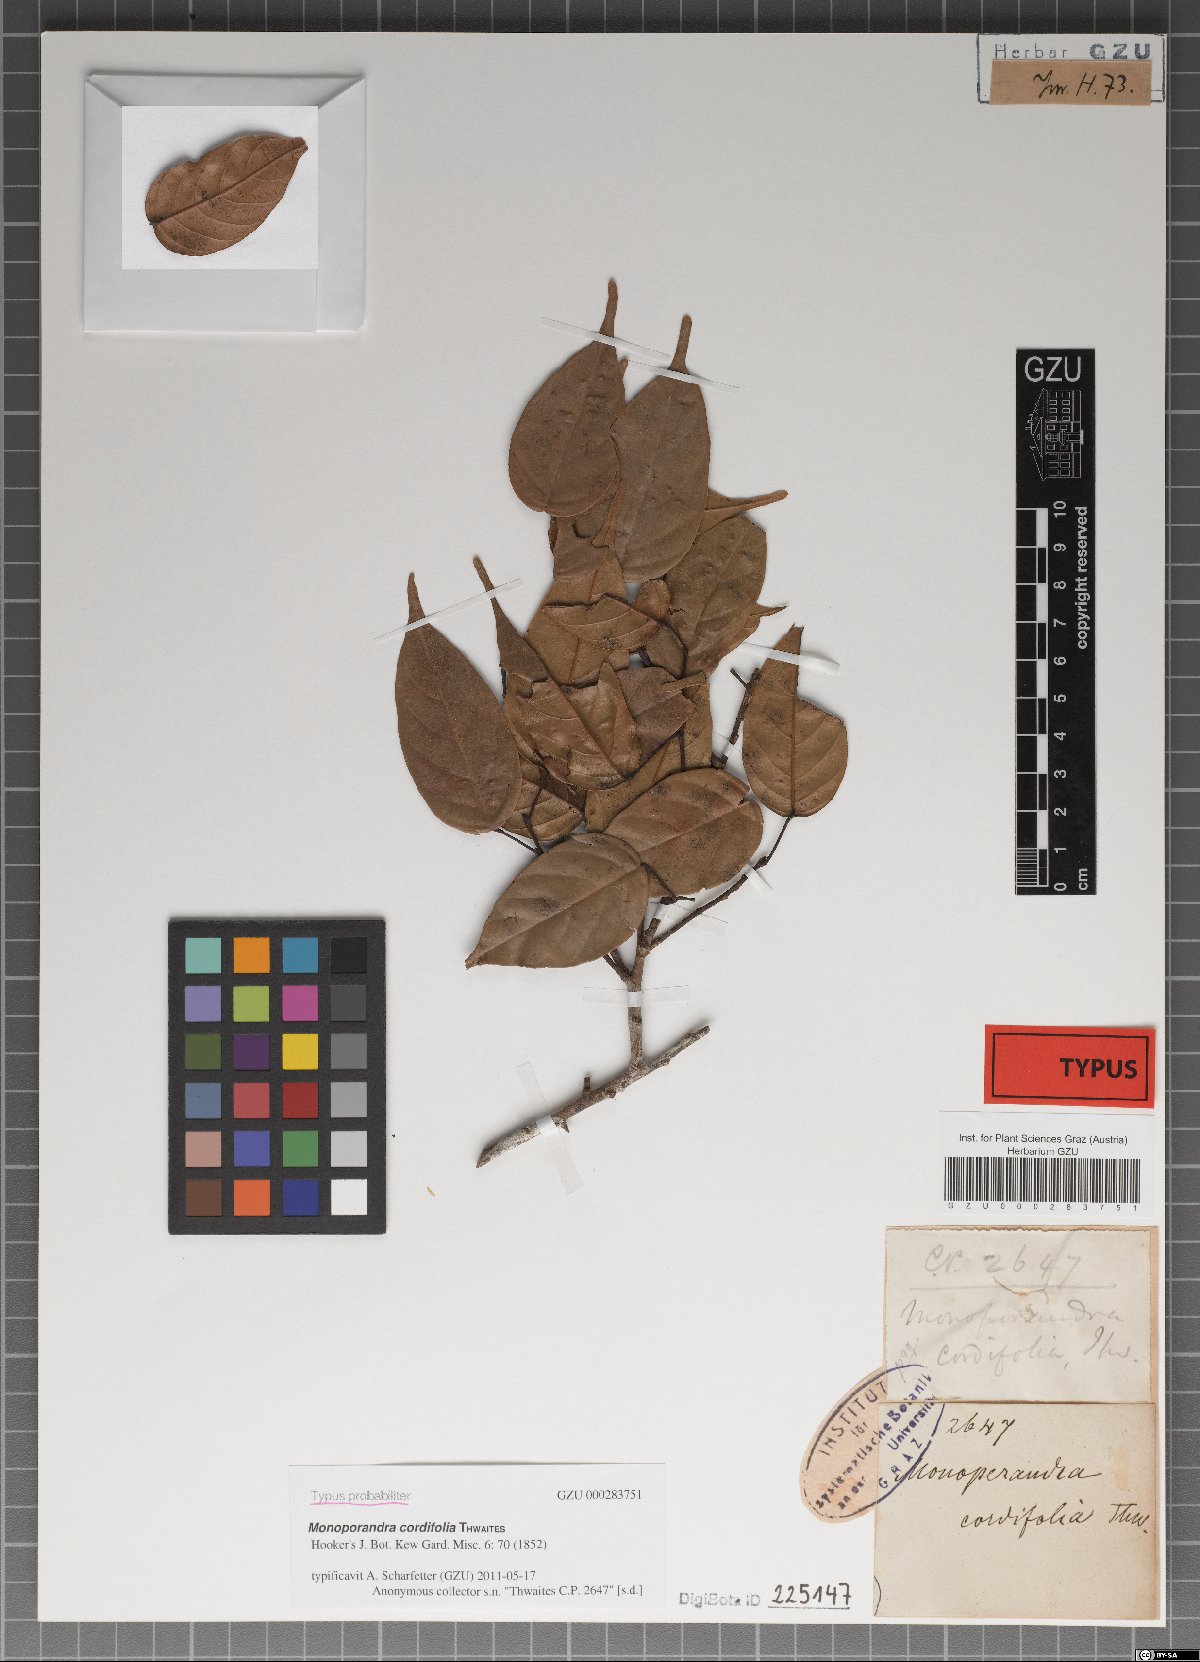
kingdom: Plantae
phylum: Tracheophyta
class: Magnoliopsida
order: Malvales
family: Dipterocarpaceae
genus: Stemonoporus
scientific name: Stemonoporus cordifolius
